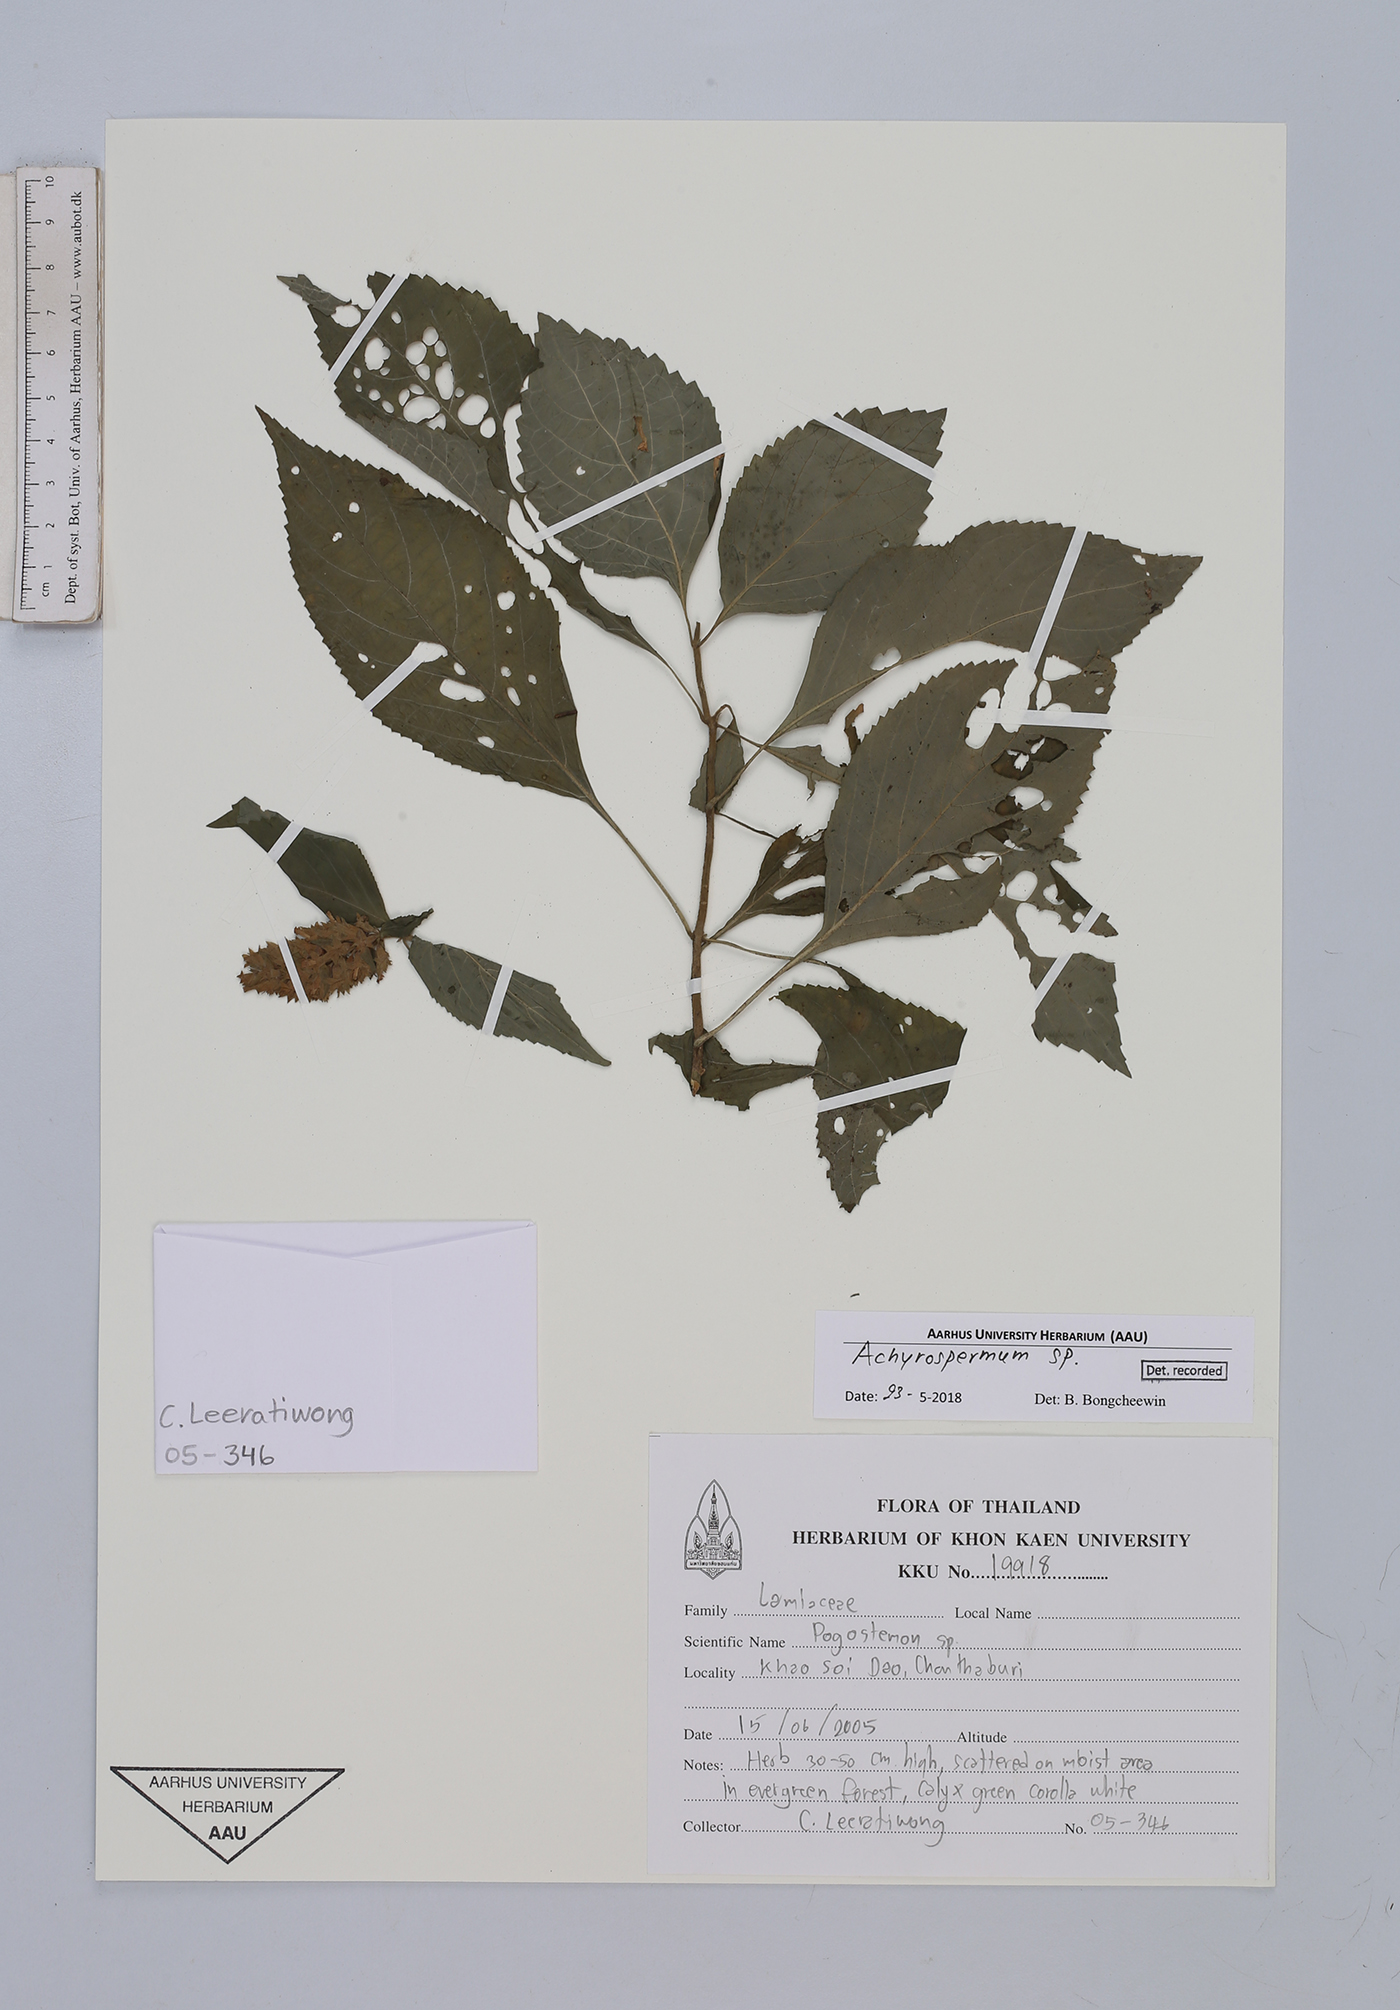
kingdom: Plantae
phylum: Tracheophyta
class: Magnoliopsida
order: Lamiales
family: Lamiaceae
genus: Achyrospermum
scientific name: Achyrospermum densiflorum
